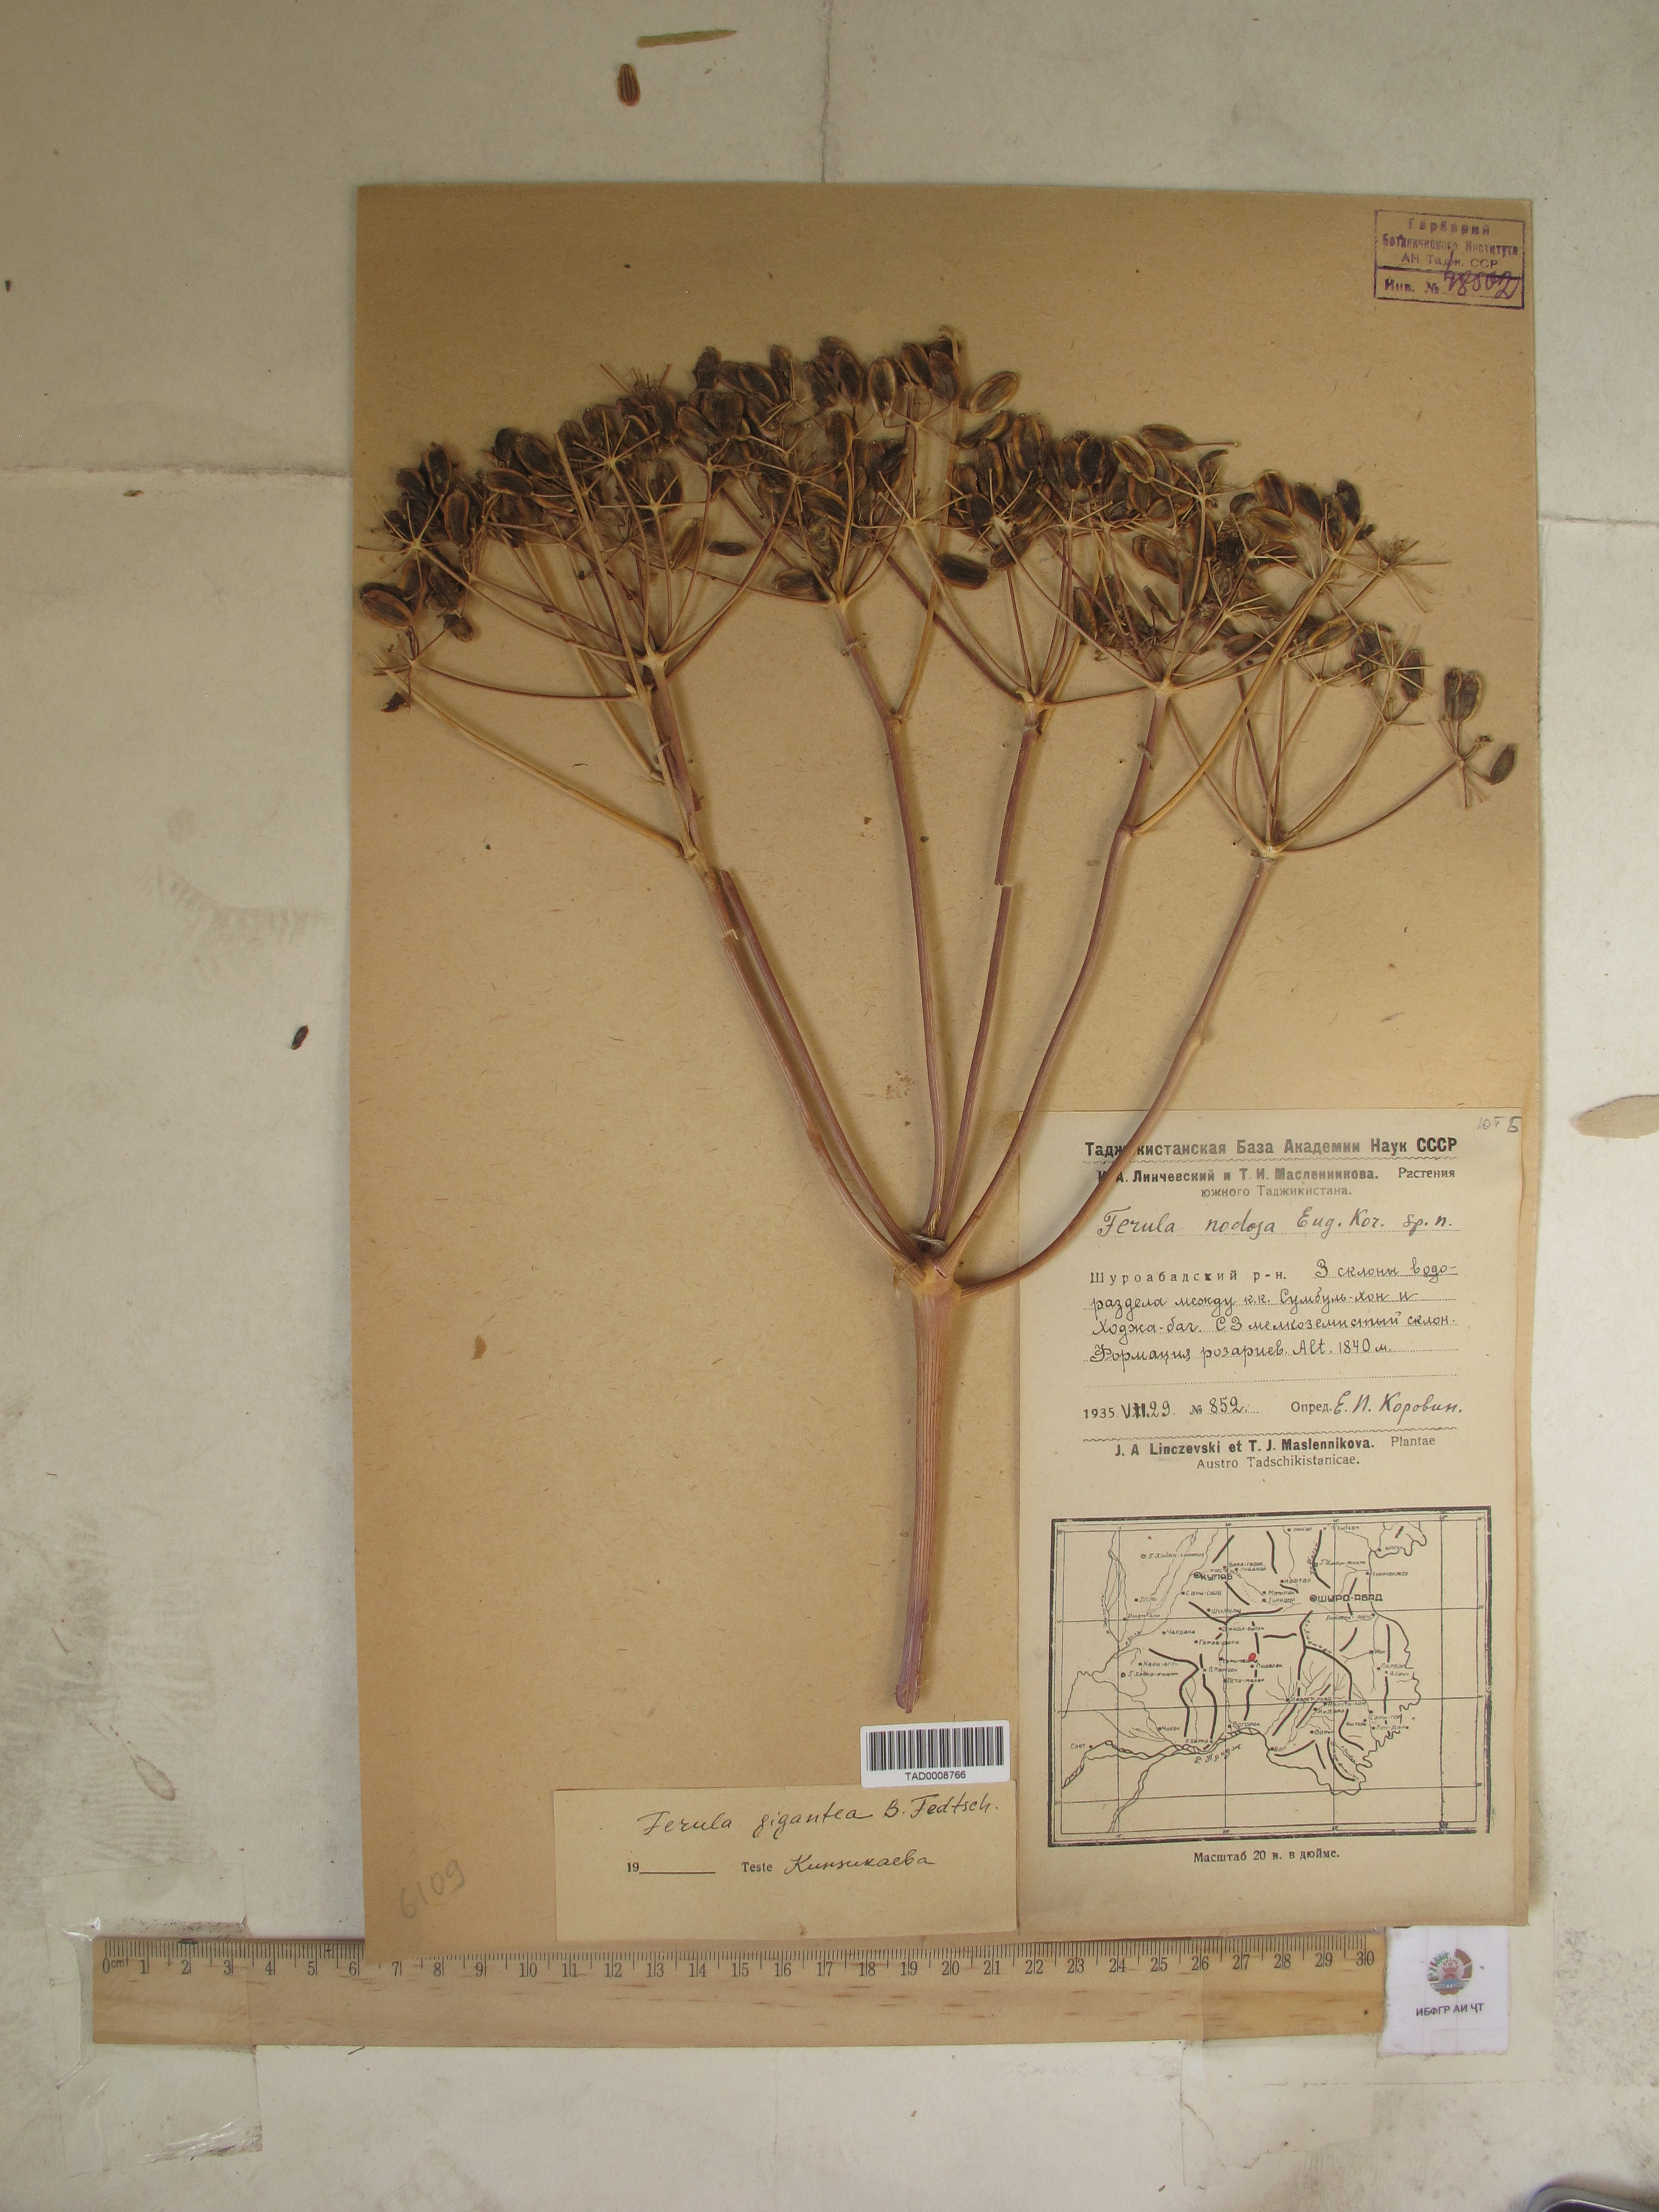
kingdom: Plantae
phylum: Tracheophyta
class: Magnoliopsida
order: Apiales
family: Apiaceae
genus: Ferula
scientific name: Ferula gigantea
